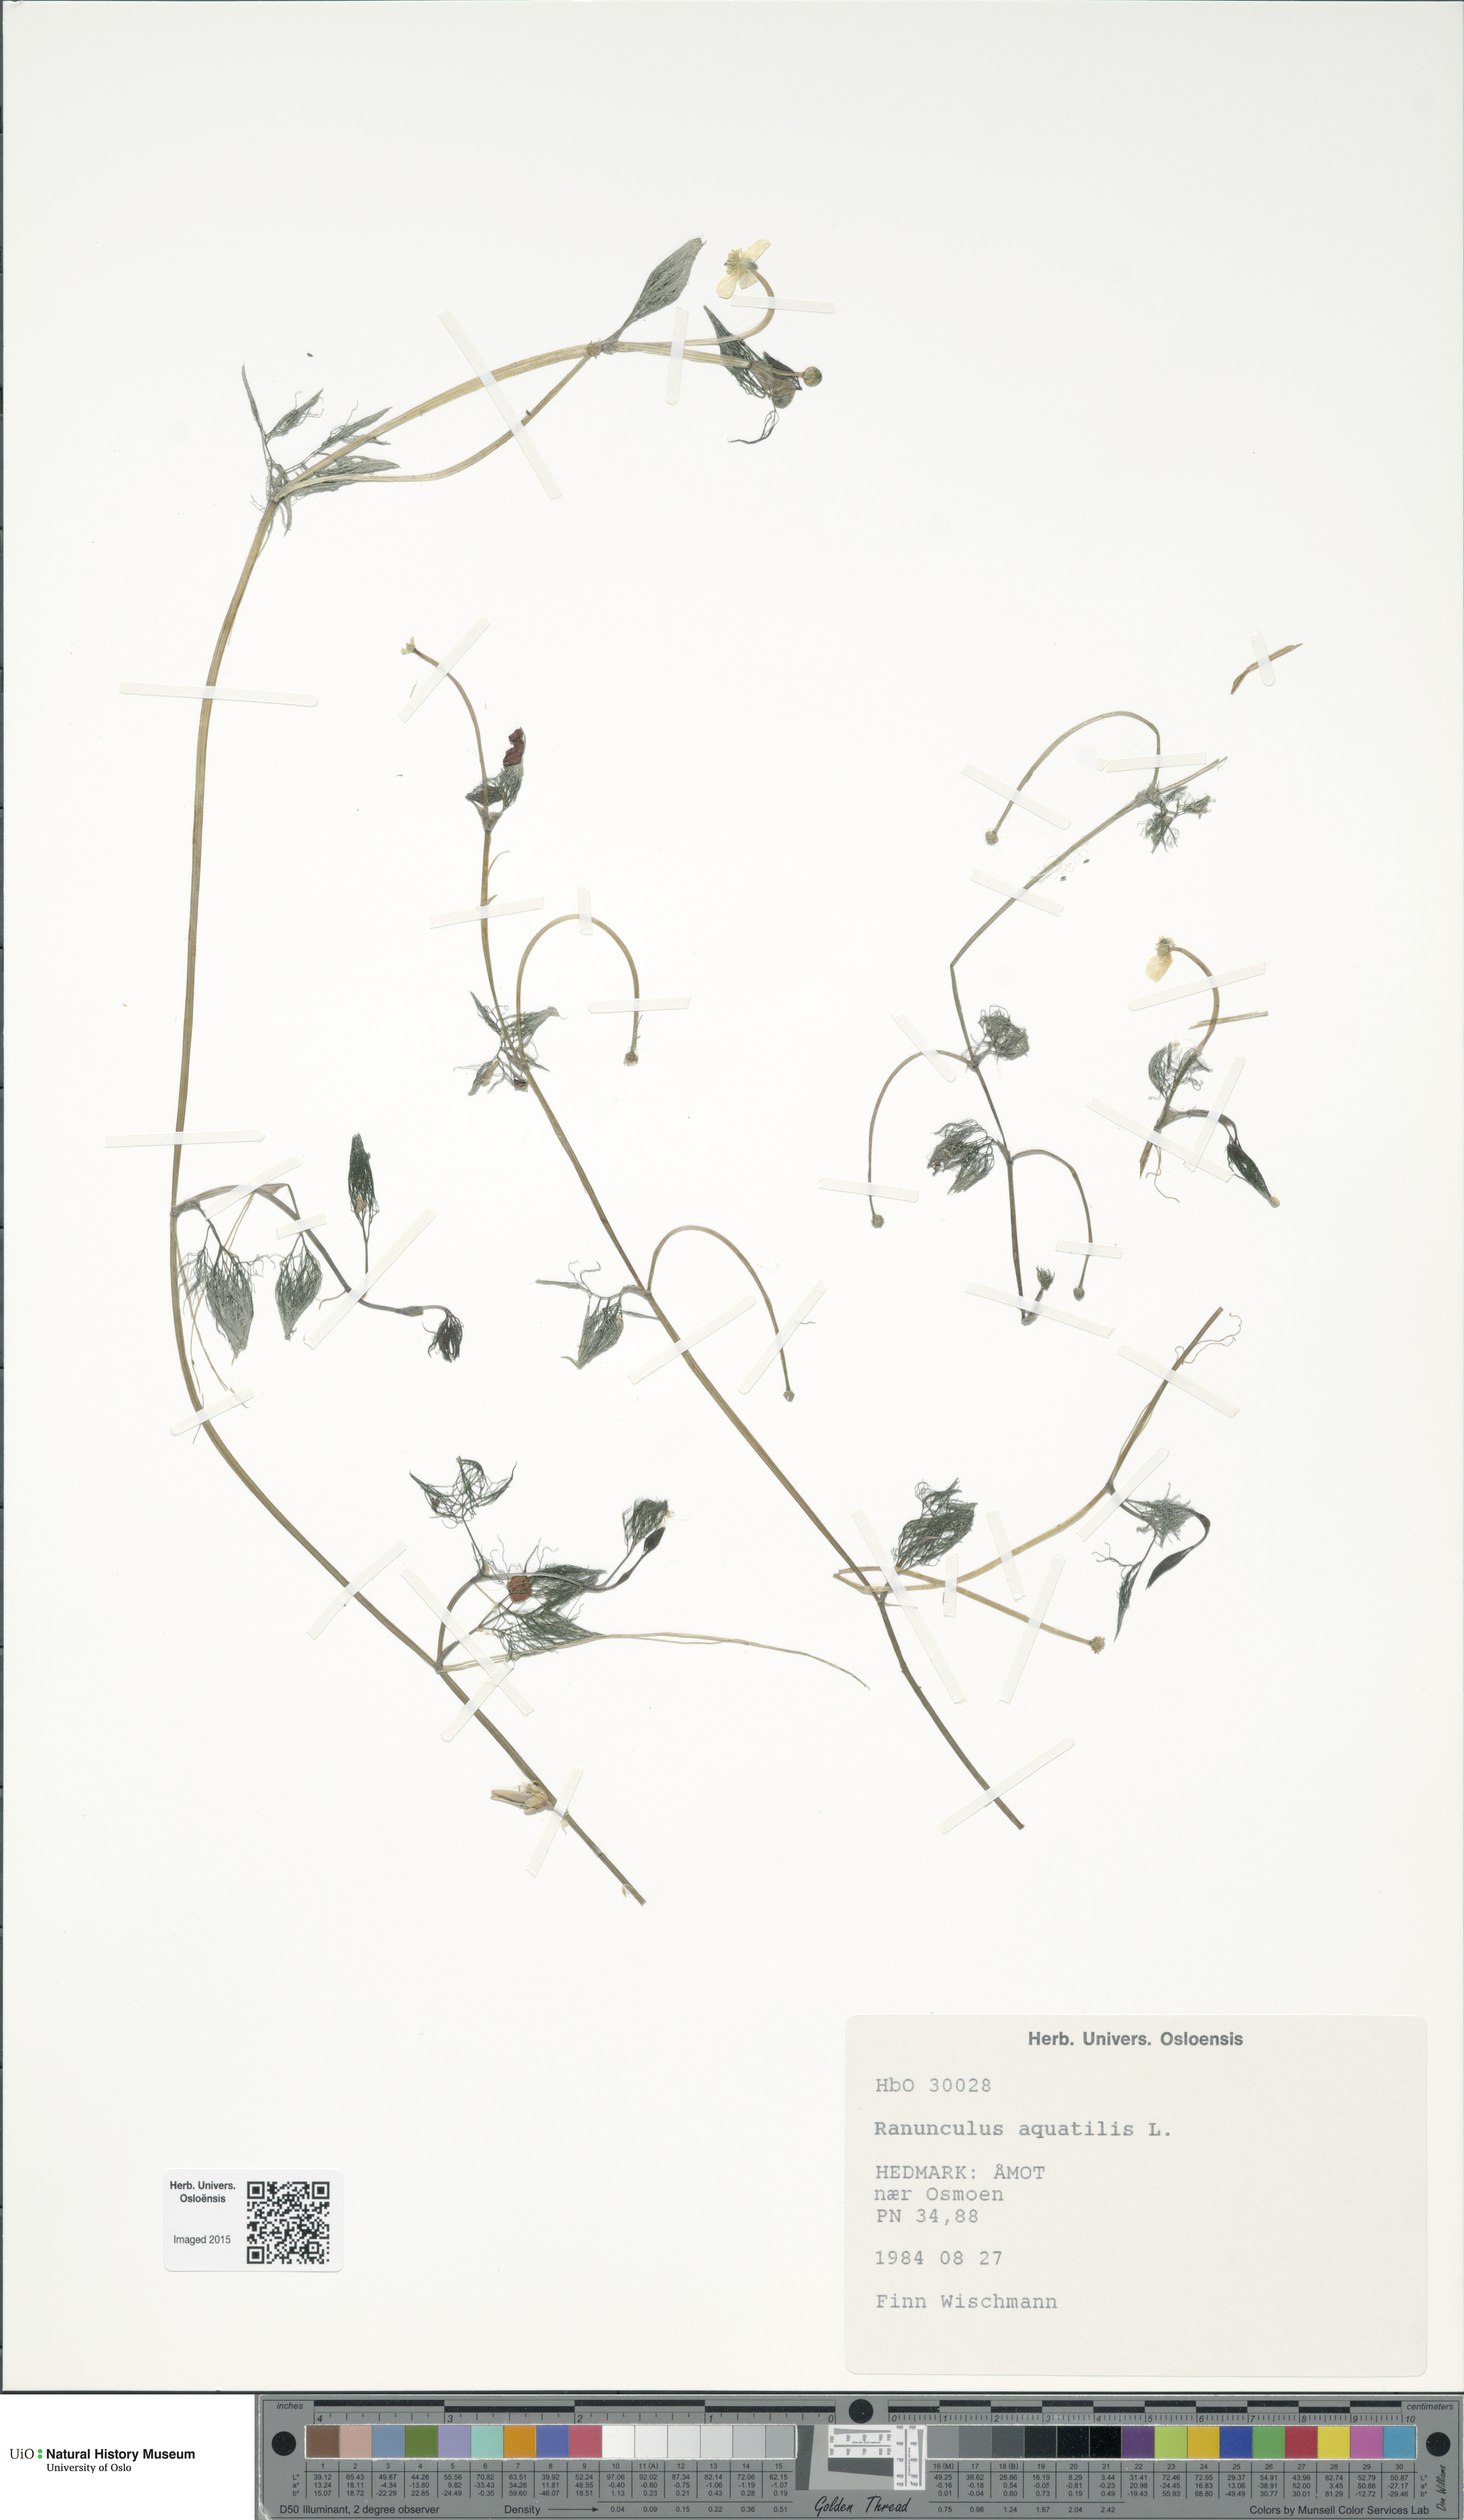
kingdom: Plantae
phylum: Tracheophyta
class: Magnoliopsida
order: Ranunculales
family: Ranunculaceae
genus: Ranunculus
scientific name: Ranunculus trichophyllus
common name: Thread-leaved water-crowfoot
